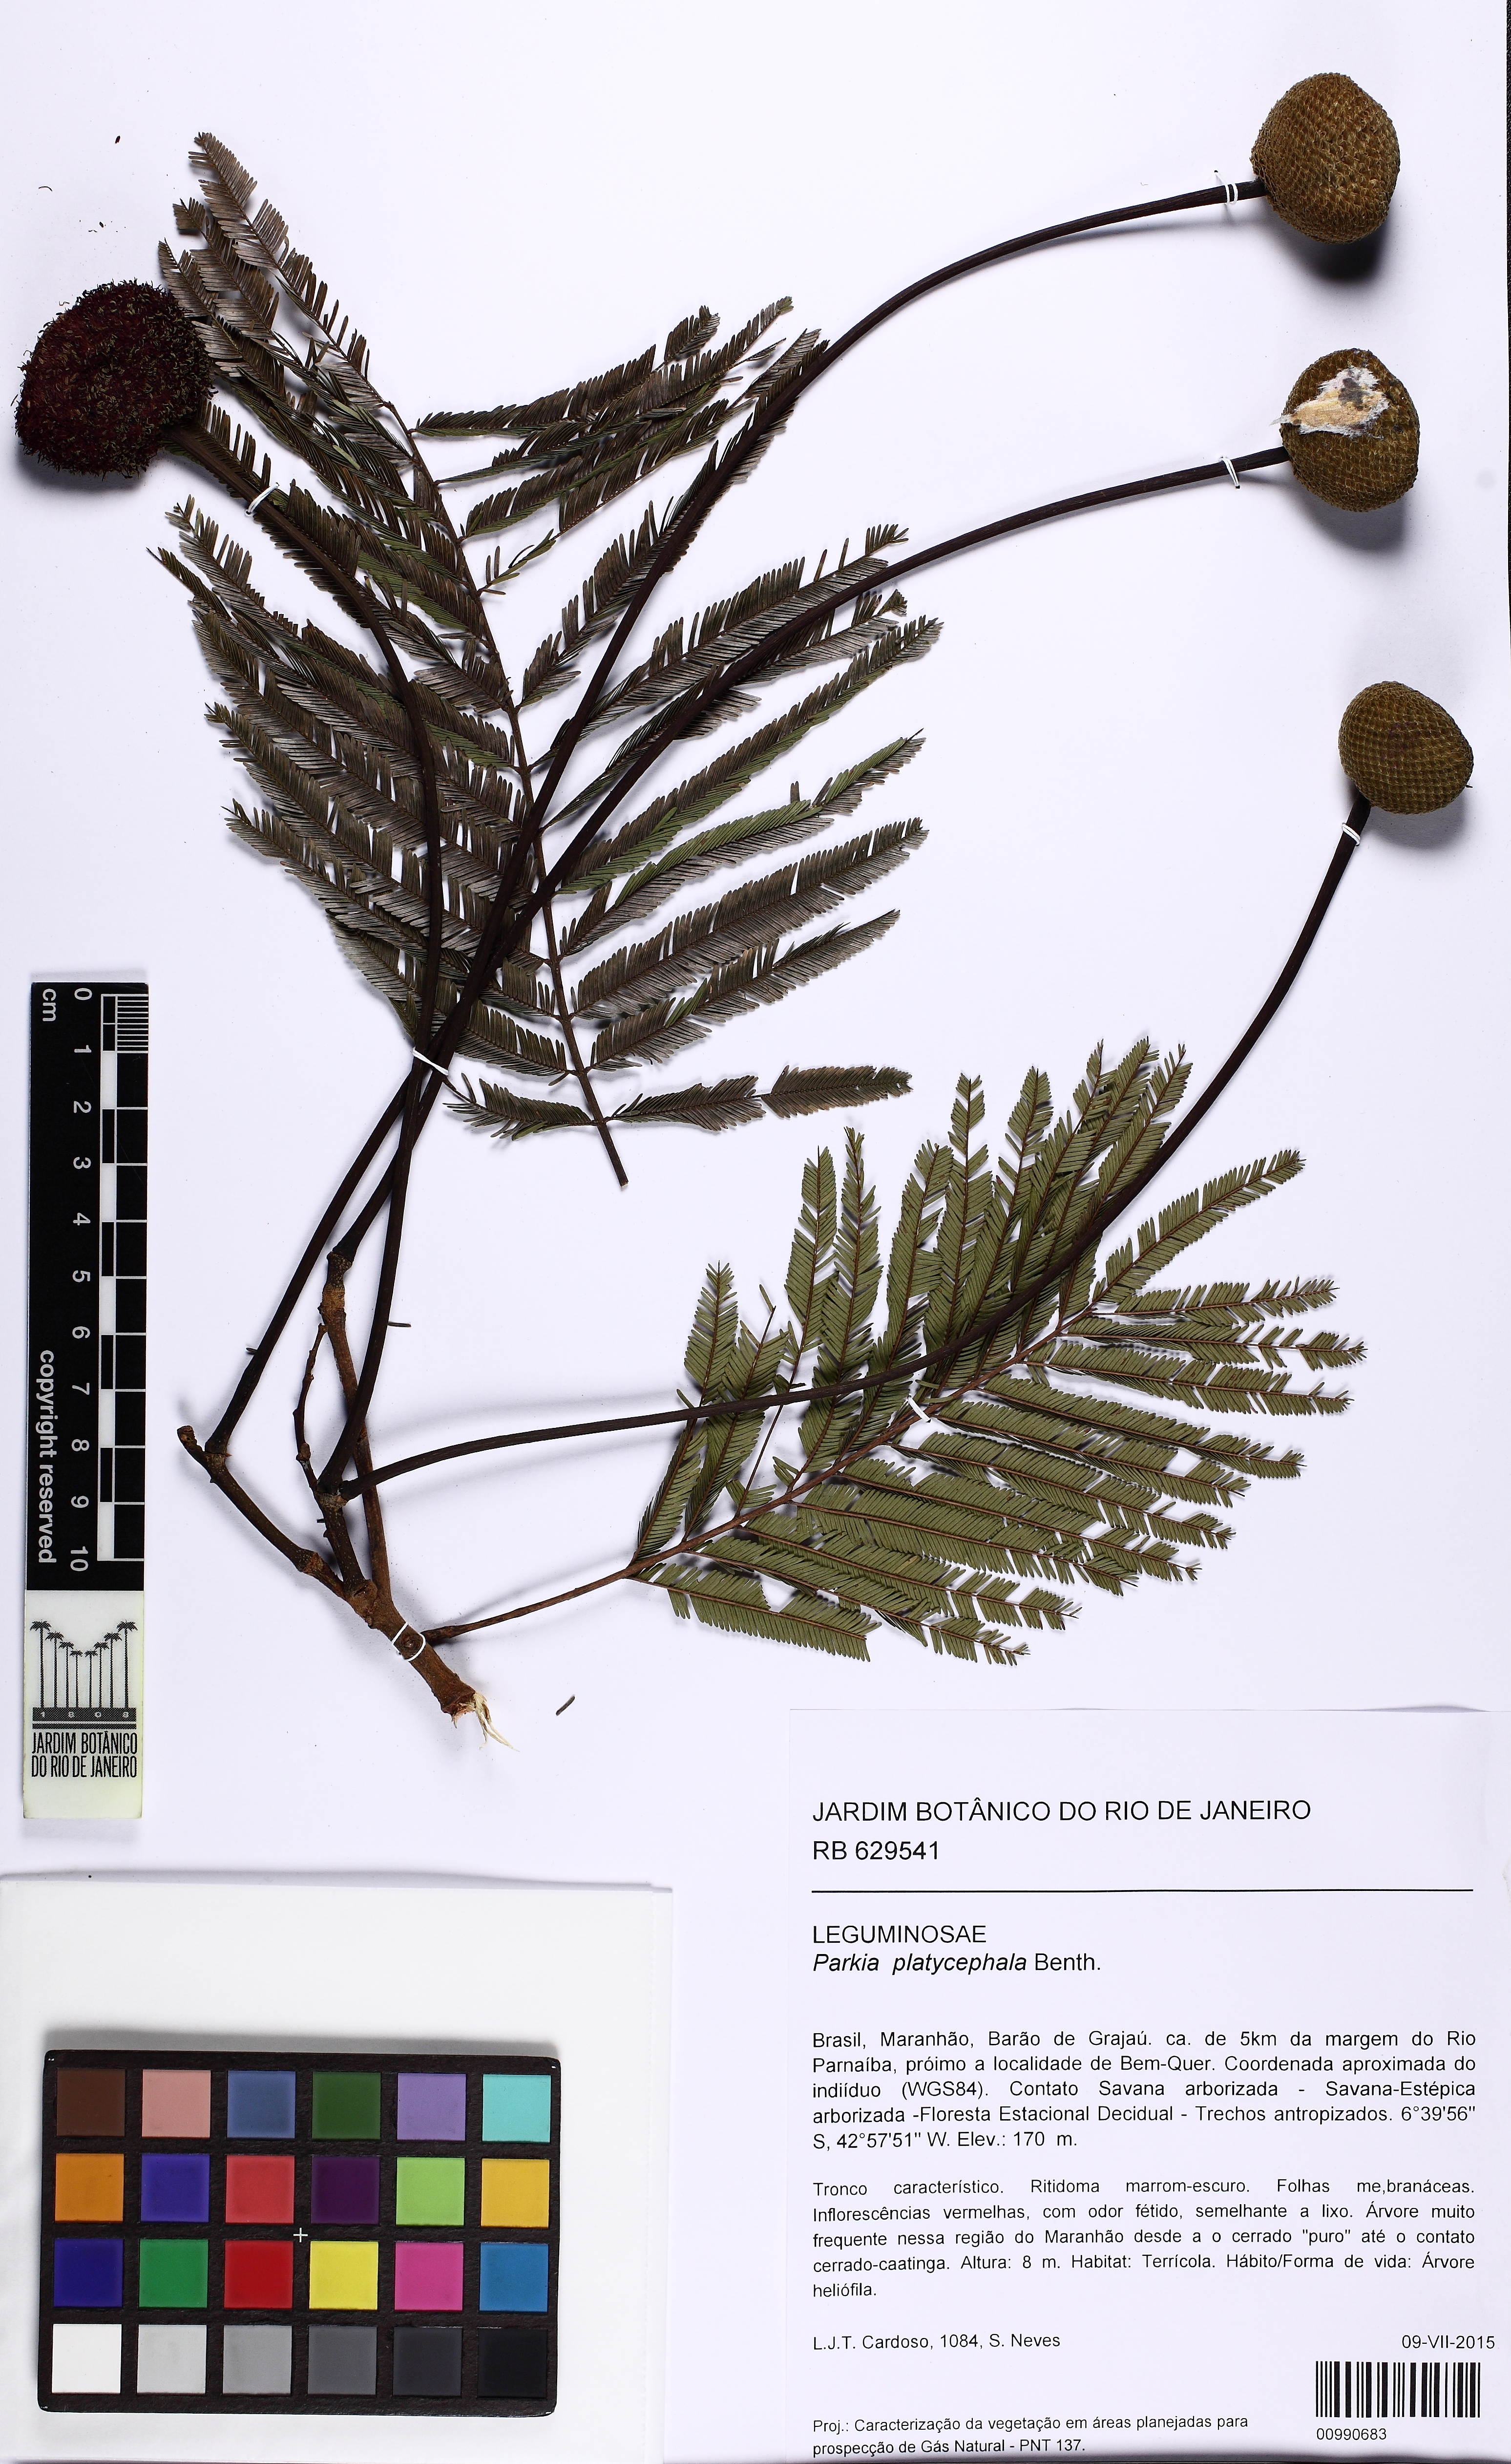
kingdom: Plantae
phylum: Tracheophyta
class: Magnoliopsida
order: Fabales
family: Fabaceae
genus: Parkia
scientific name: Parkia platycephala
